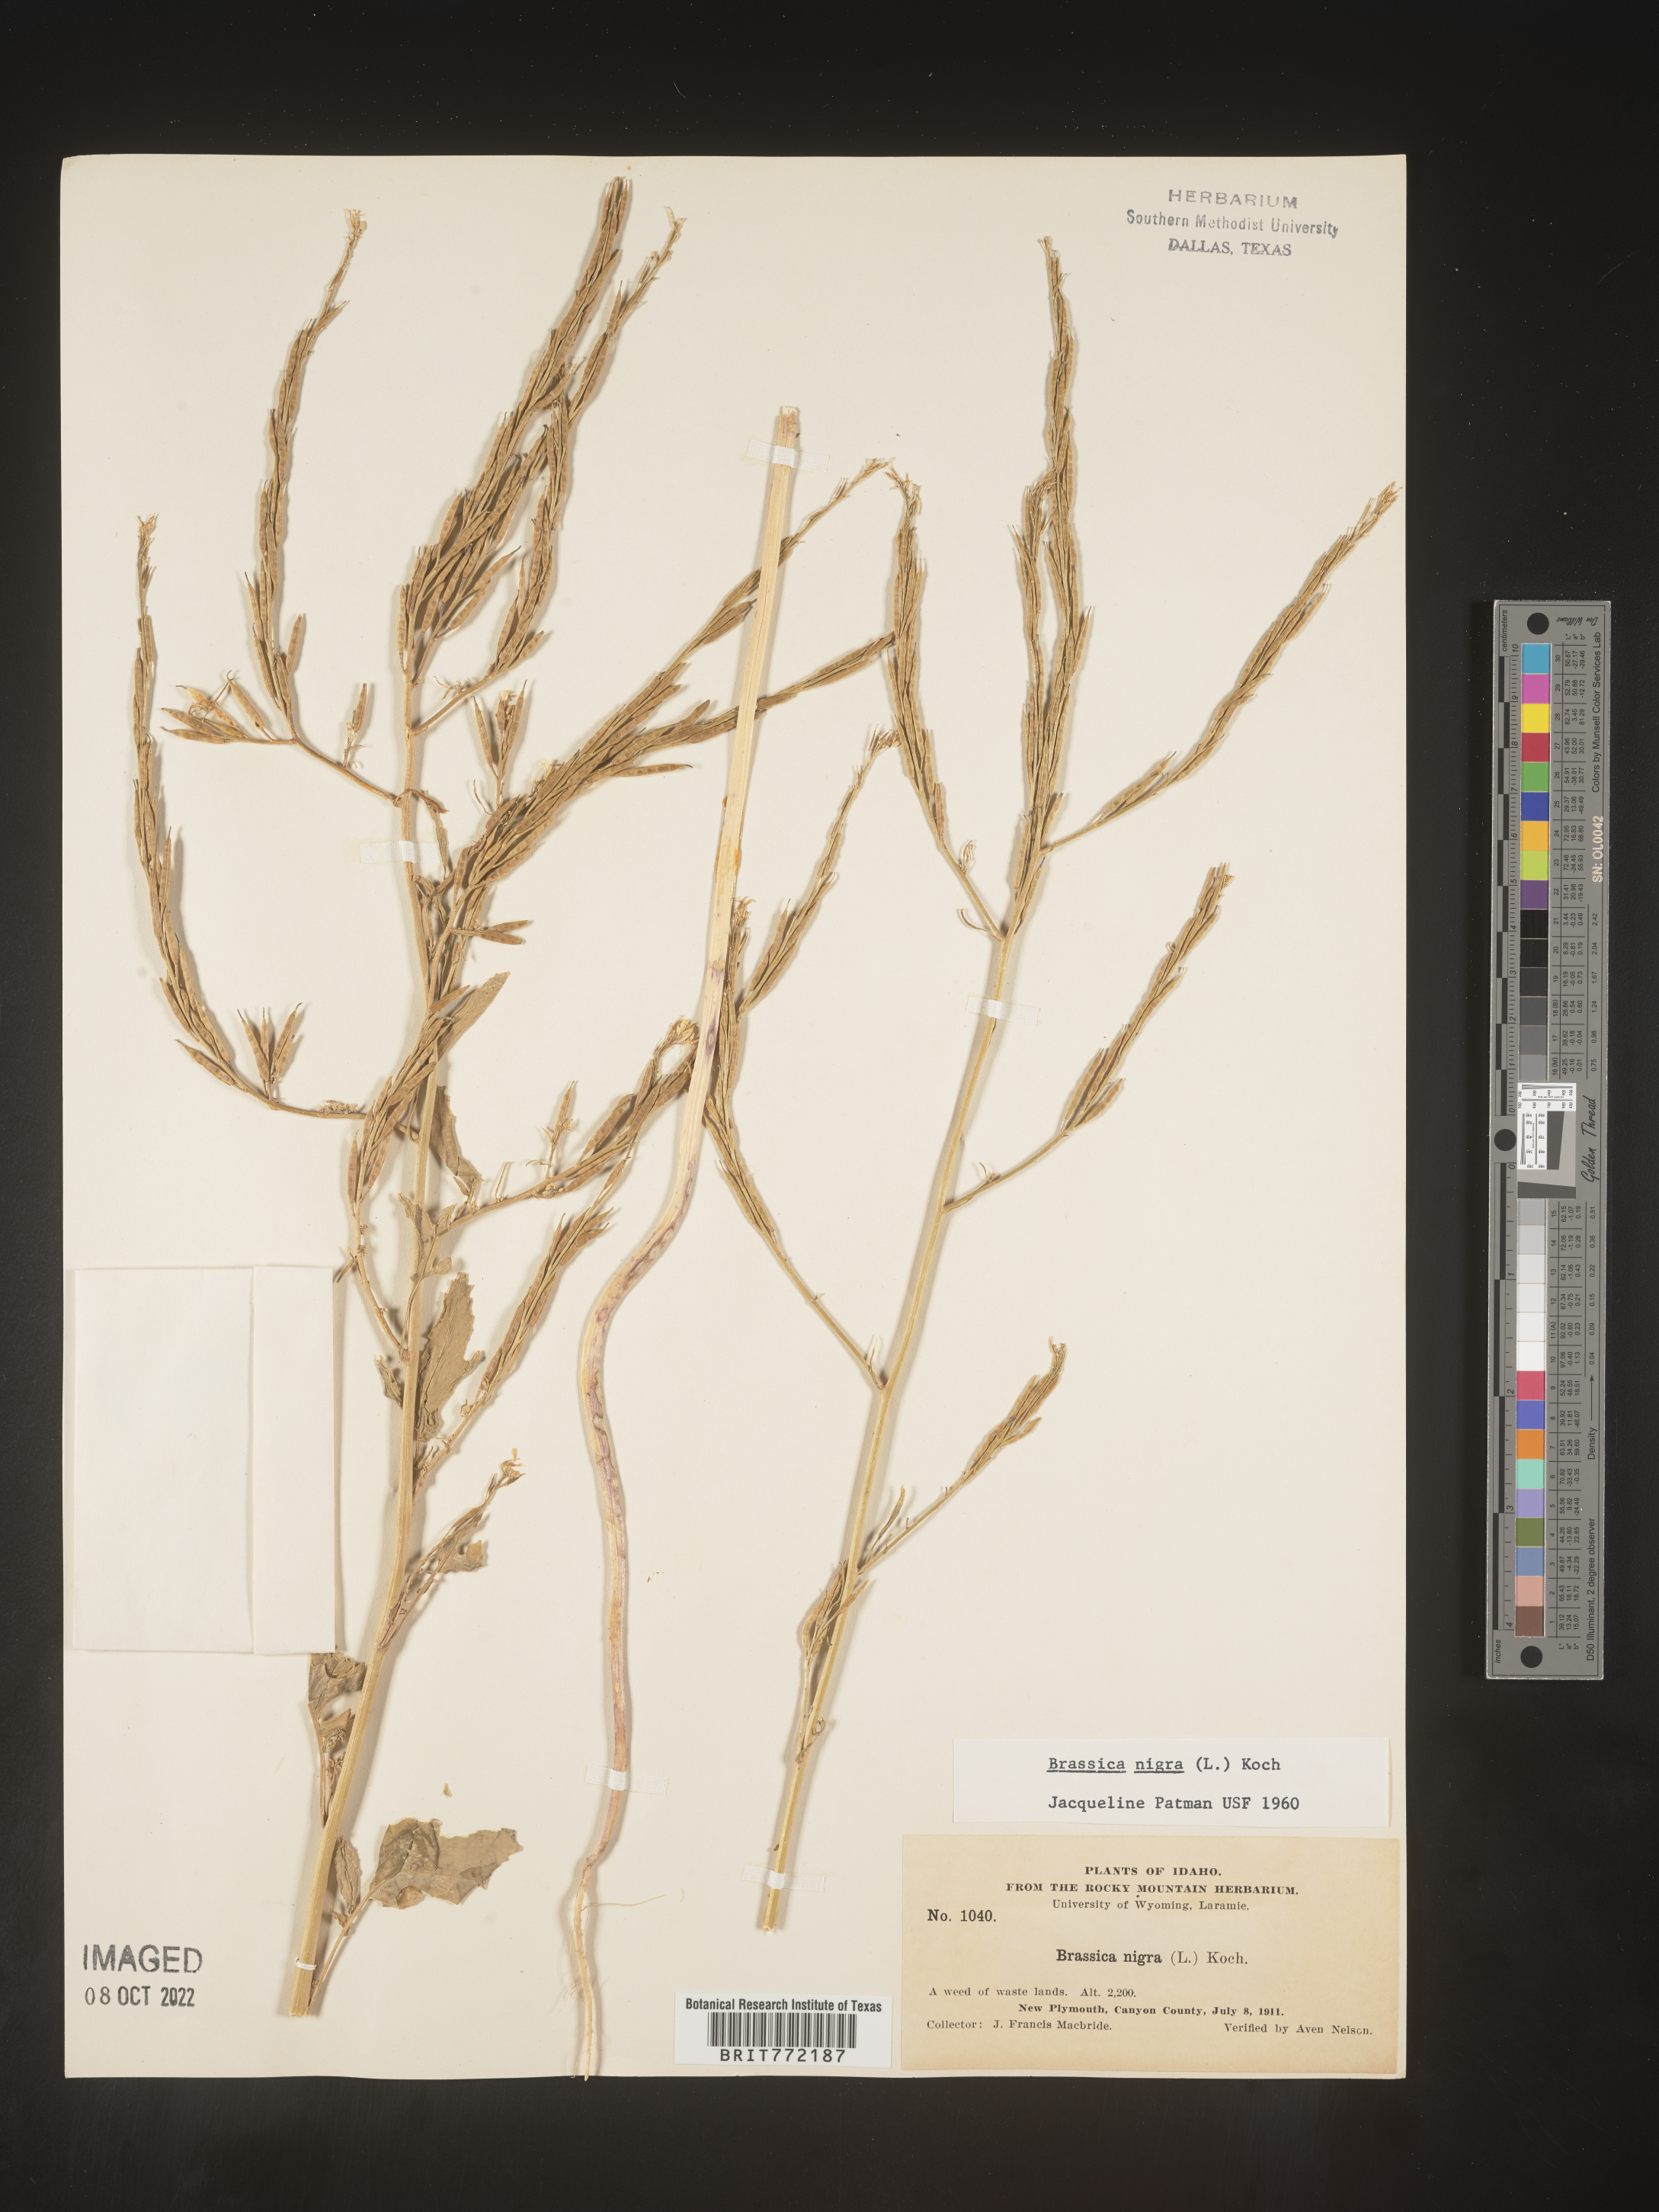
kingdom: Plantae
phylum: Tracheophyta
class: Magnoliopsida
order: Brassicales
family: Brassicaceae
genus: Brassica
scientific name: Brassica nigra
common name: Black mustard
